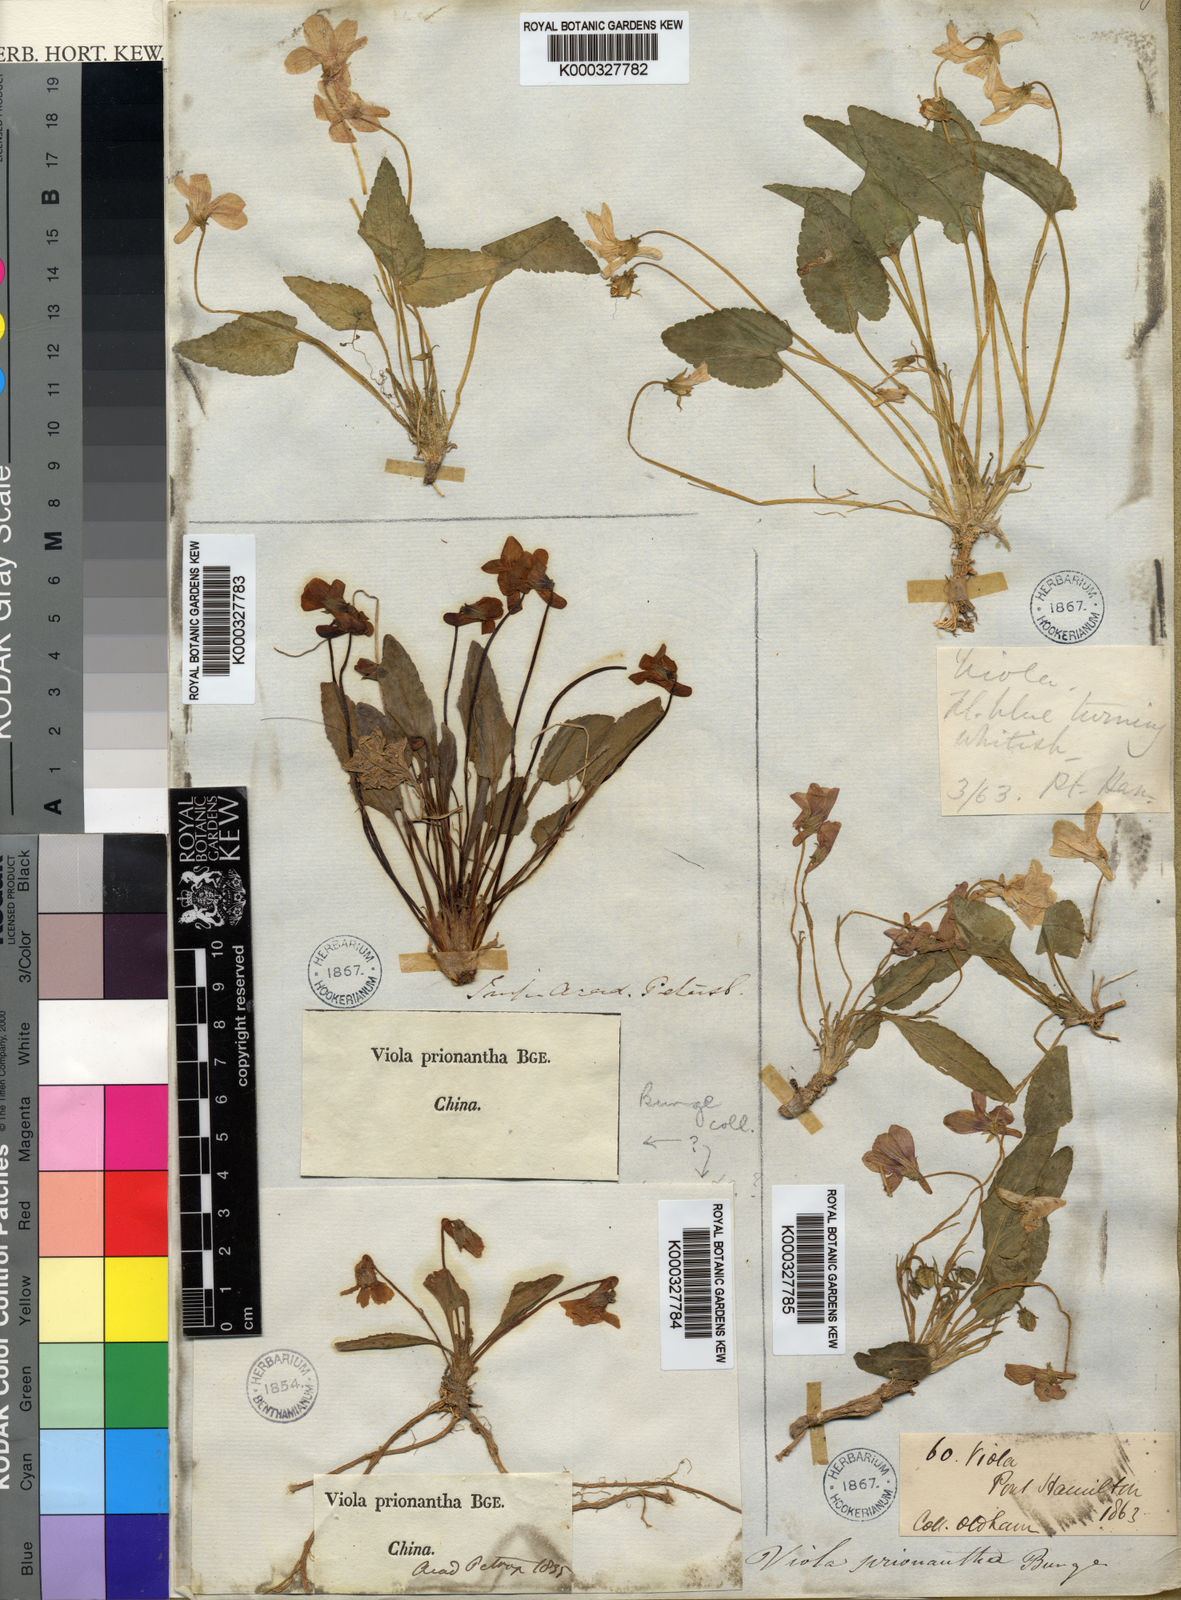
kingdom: Plantae
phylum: Tracheophyta
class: Magnoliopsida
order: Malpighiales
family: Violaceae
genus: Viola
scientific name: Viola prionantha
